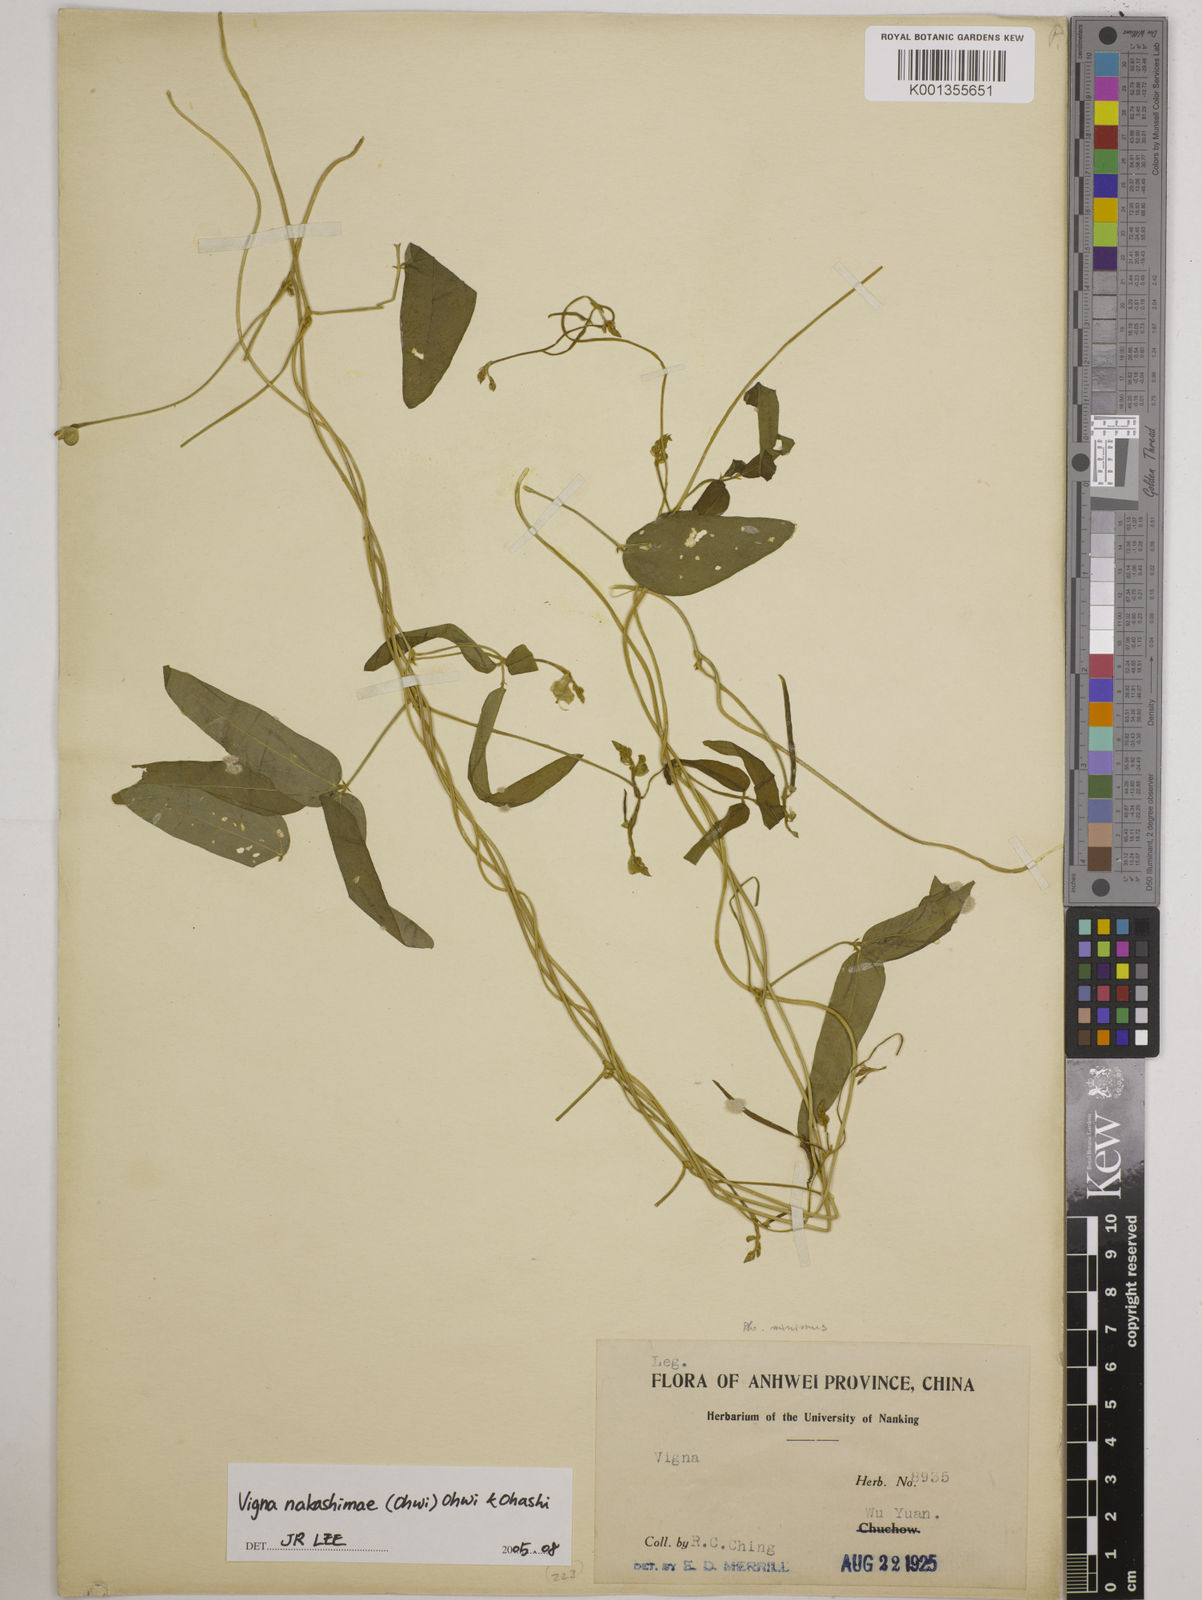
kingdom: Plantae
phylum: Tracheophyta
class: Magnoliopsida
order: Fabales
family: Fabaceae
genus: Vigna
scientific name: Vigna minima
